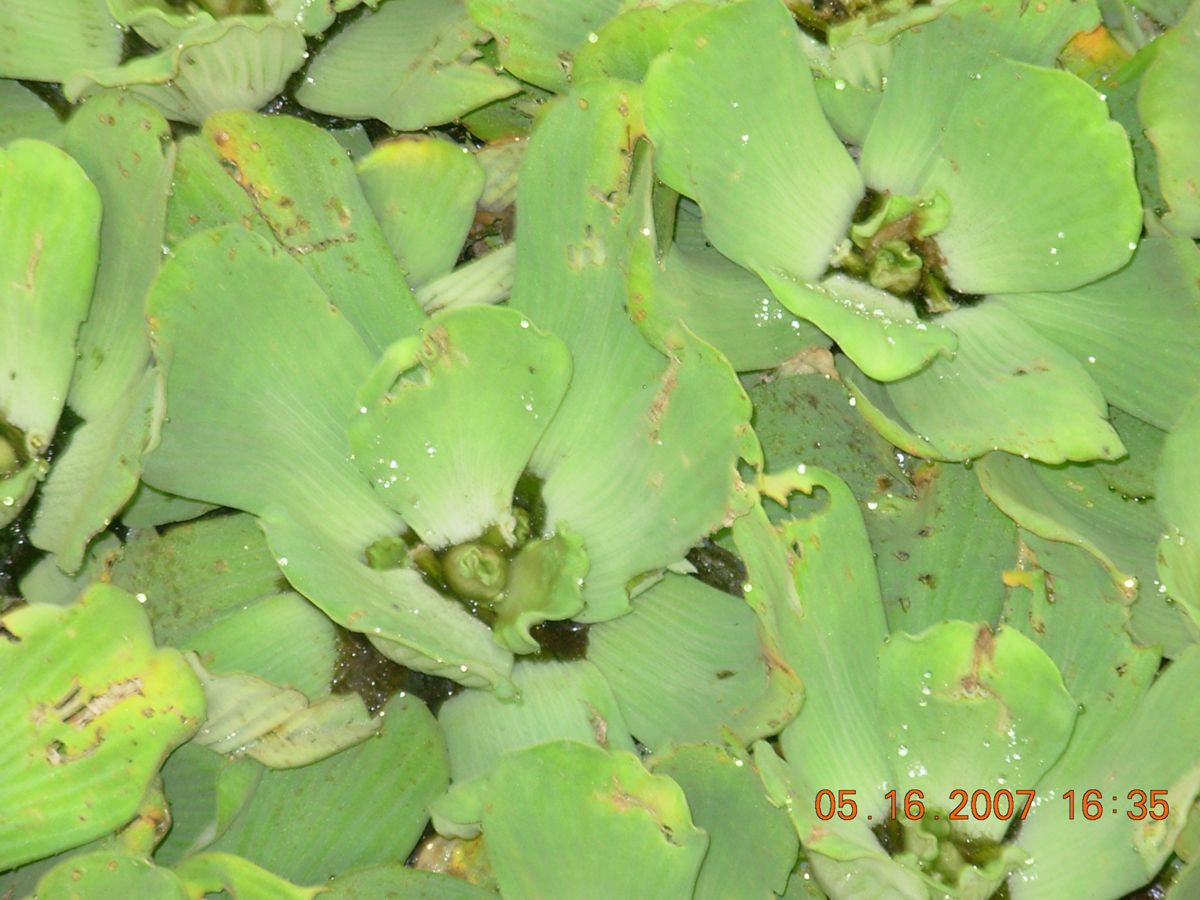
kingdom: Plantae
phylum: Tracheophyta
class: Liliopsida
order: Alismatales
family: Araceae
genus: Pistia
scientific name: Pistia stratiotes
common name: Water lettuce
